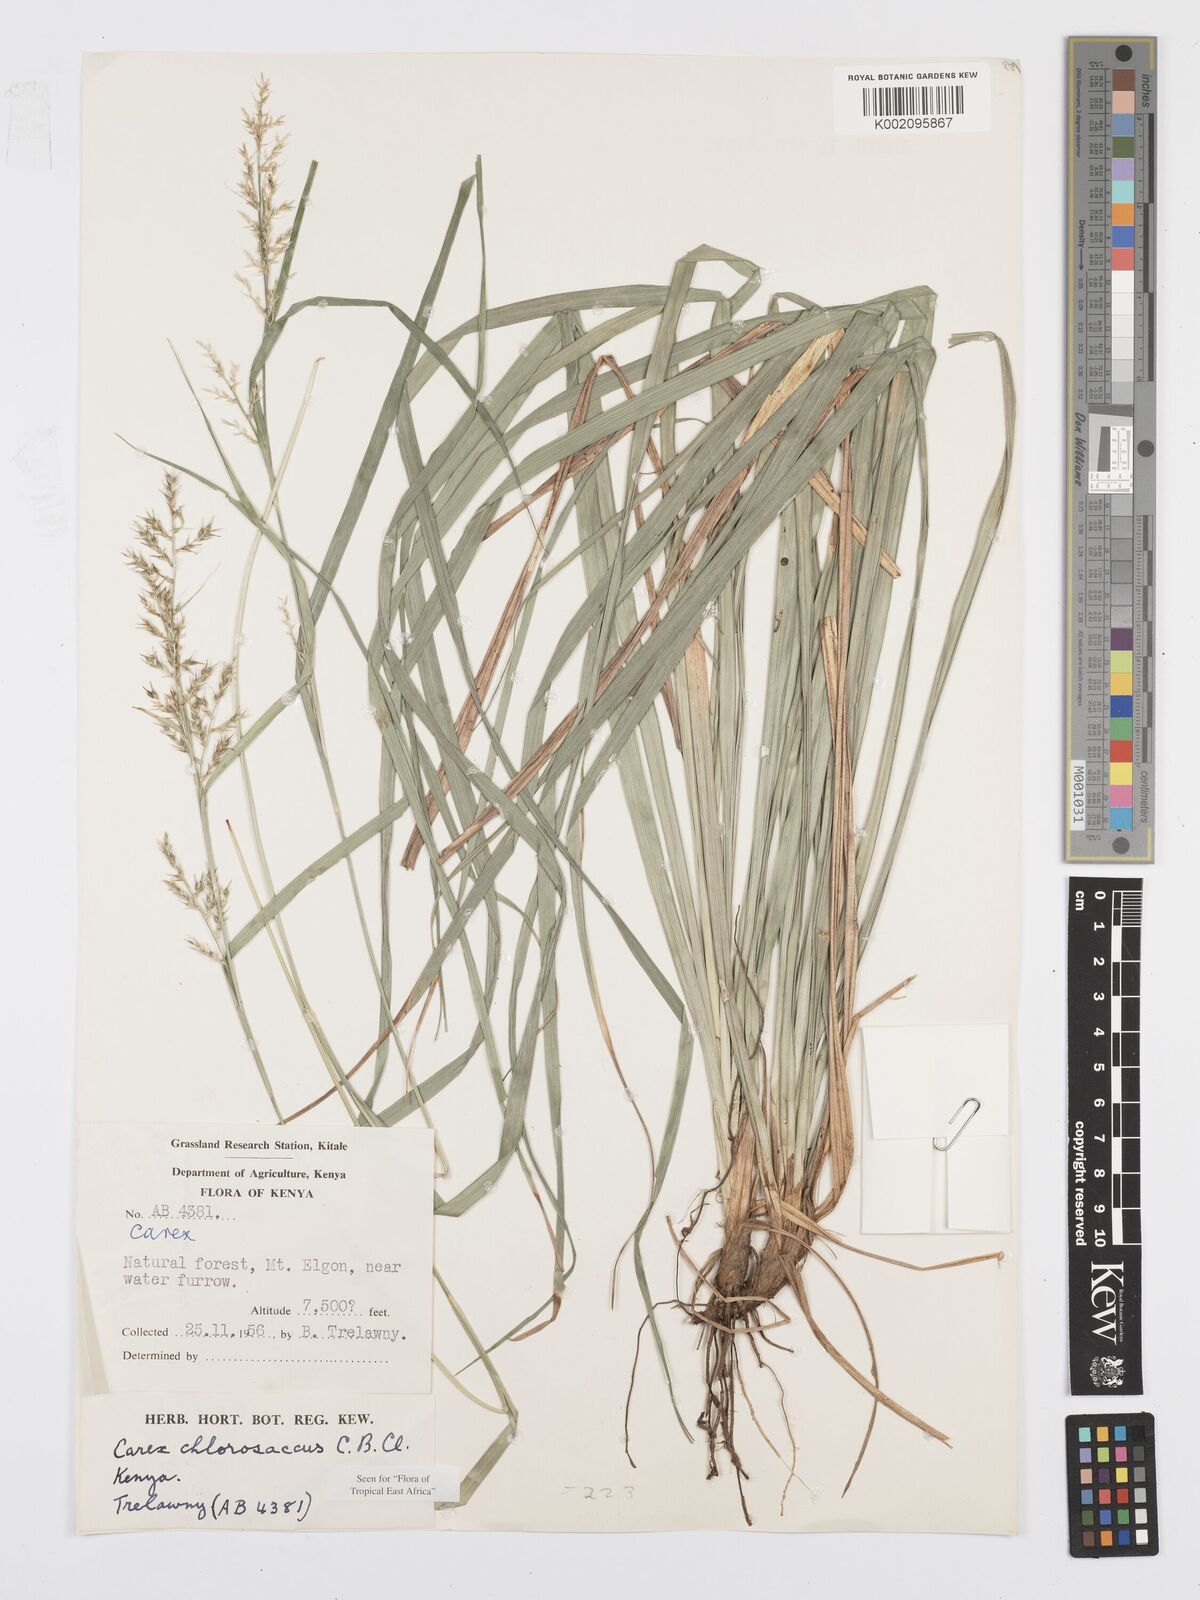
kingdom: Plantae
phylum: Tracheophyta
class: Liliopsida
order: Poales
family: Cyperaceae
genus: Carex
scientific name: Carex chlorosaccus
